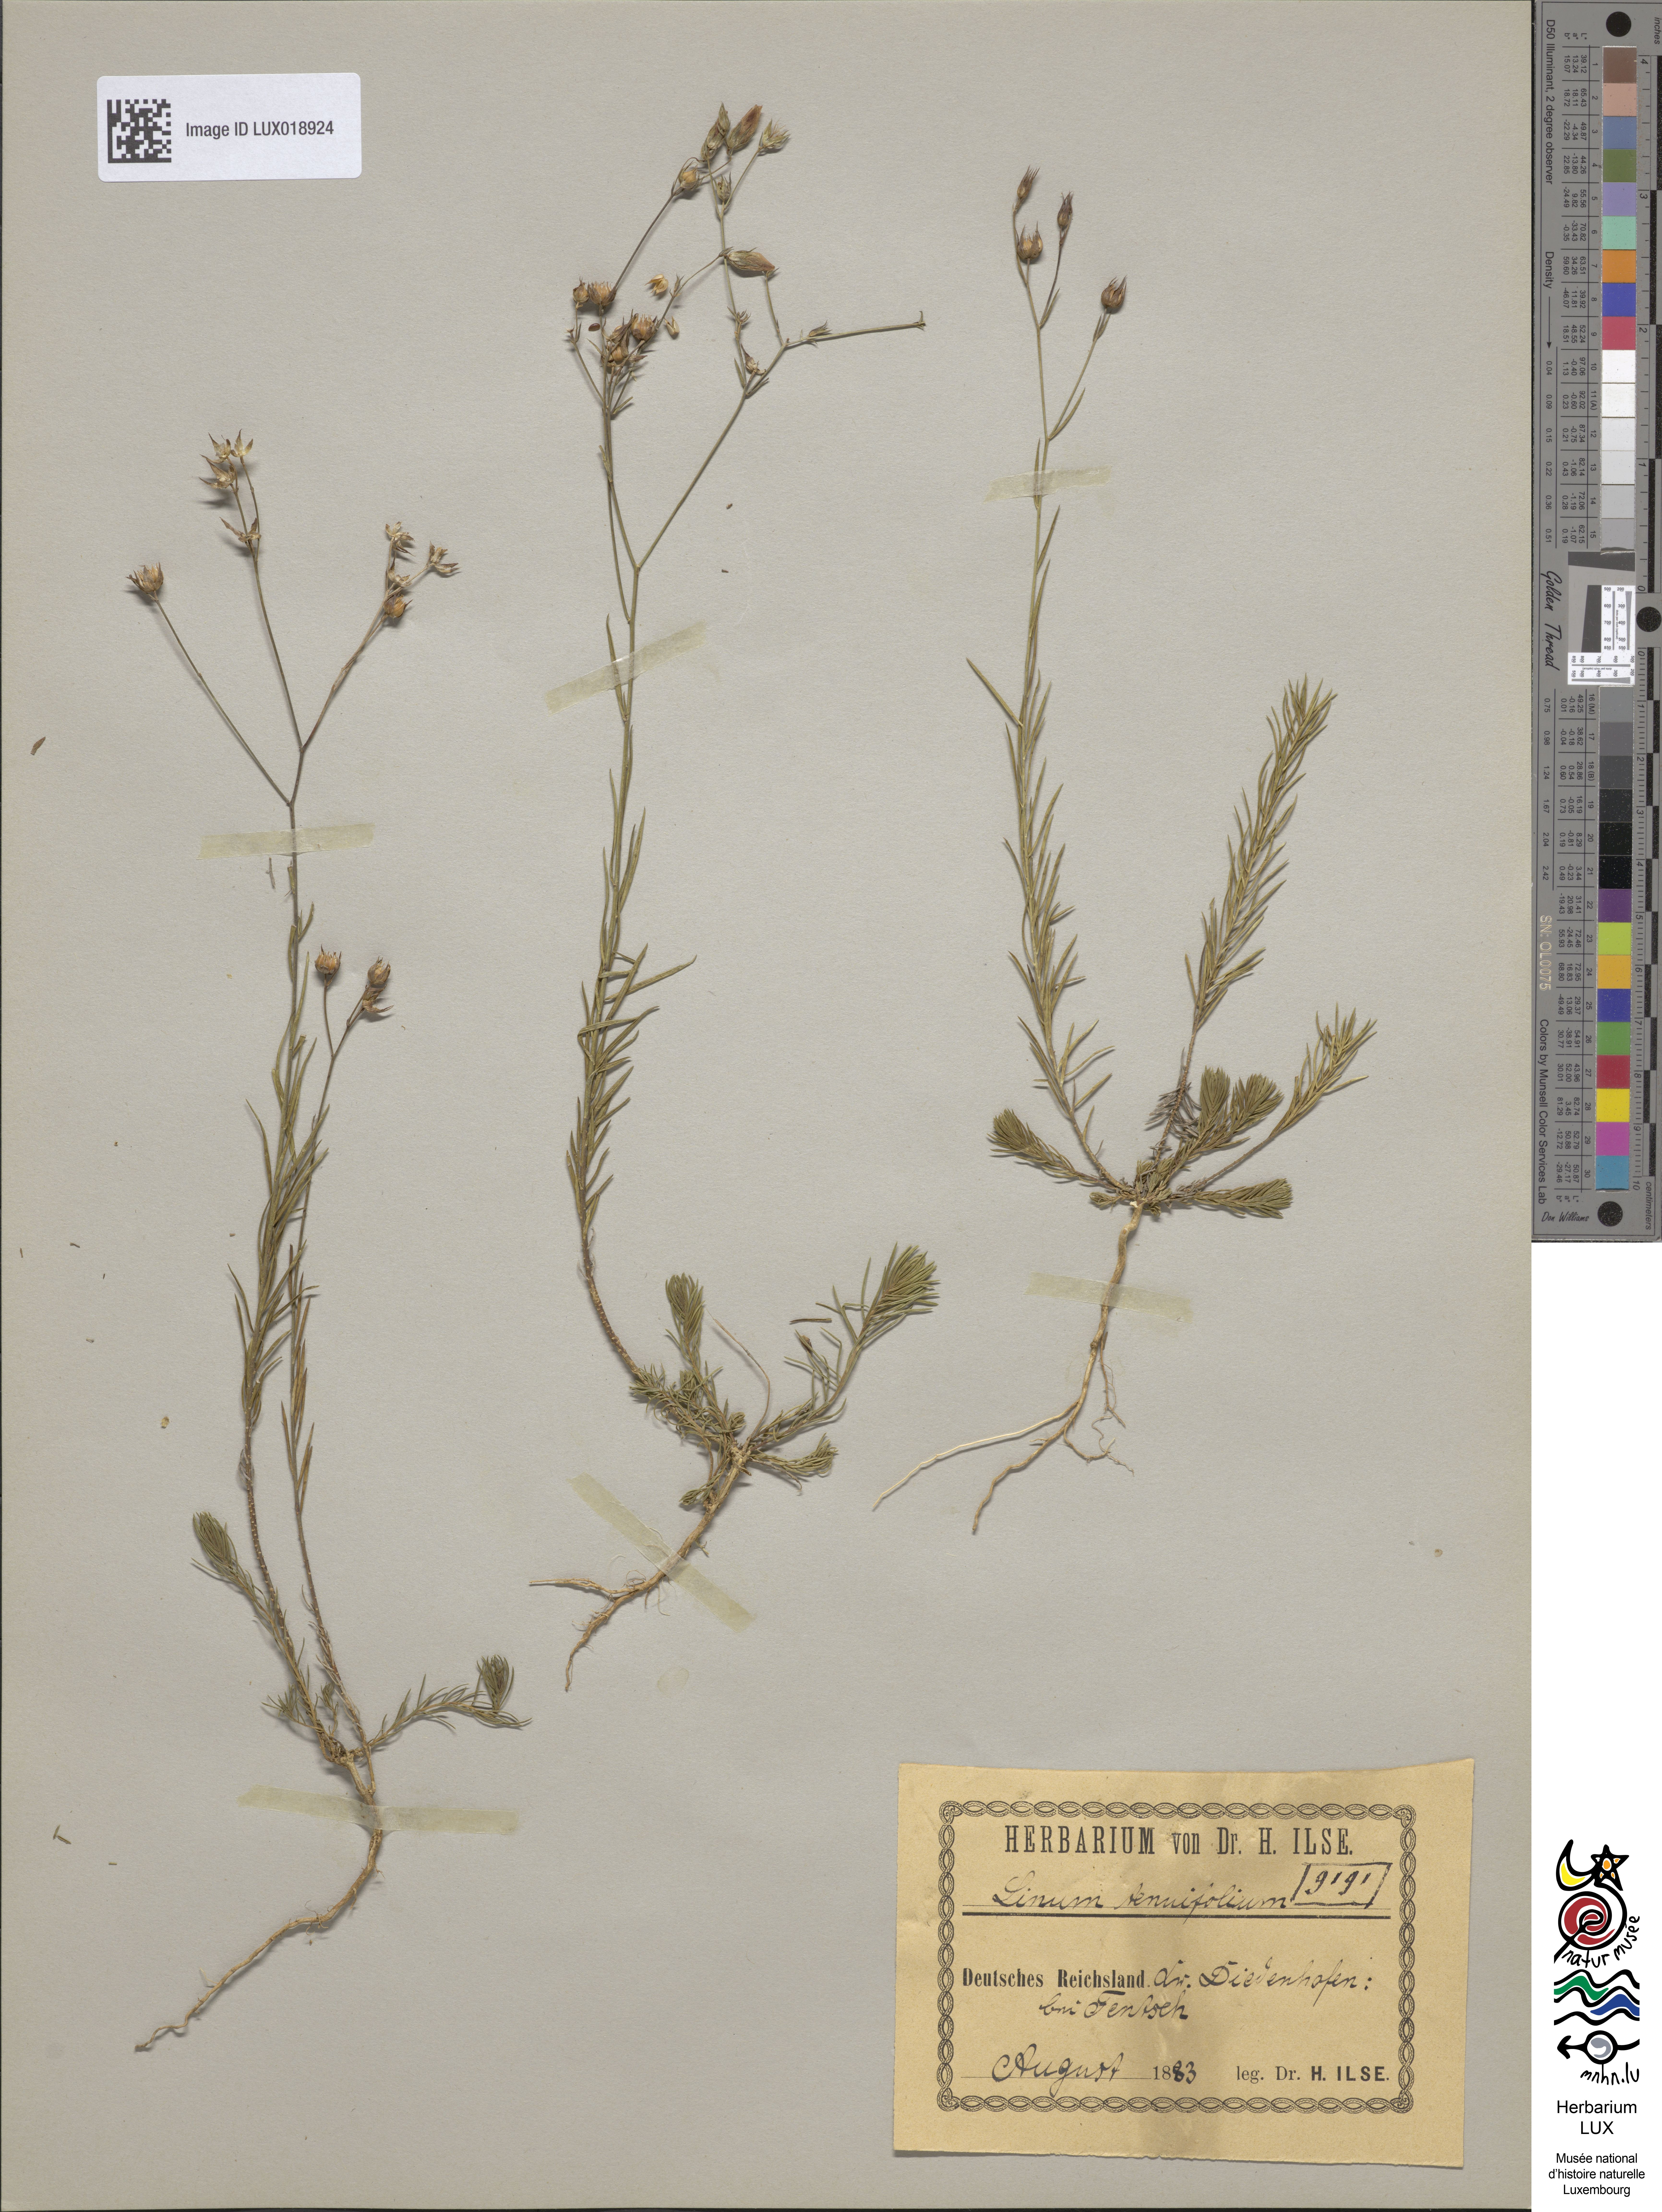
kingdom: Plantae
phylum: Tracheophyta
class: Magnoliopsida
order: Malpighiales
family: Linaceae
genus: Linum
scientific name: Linum tenuifolium
